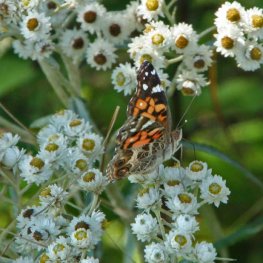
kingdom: Animalia
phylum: Arthropoda
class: Insecta
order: Lepidoptera
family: Nymphalidae
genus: Vanessa
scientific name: Vanessa virginiensis
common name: American Lady
